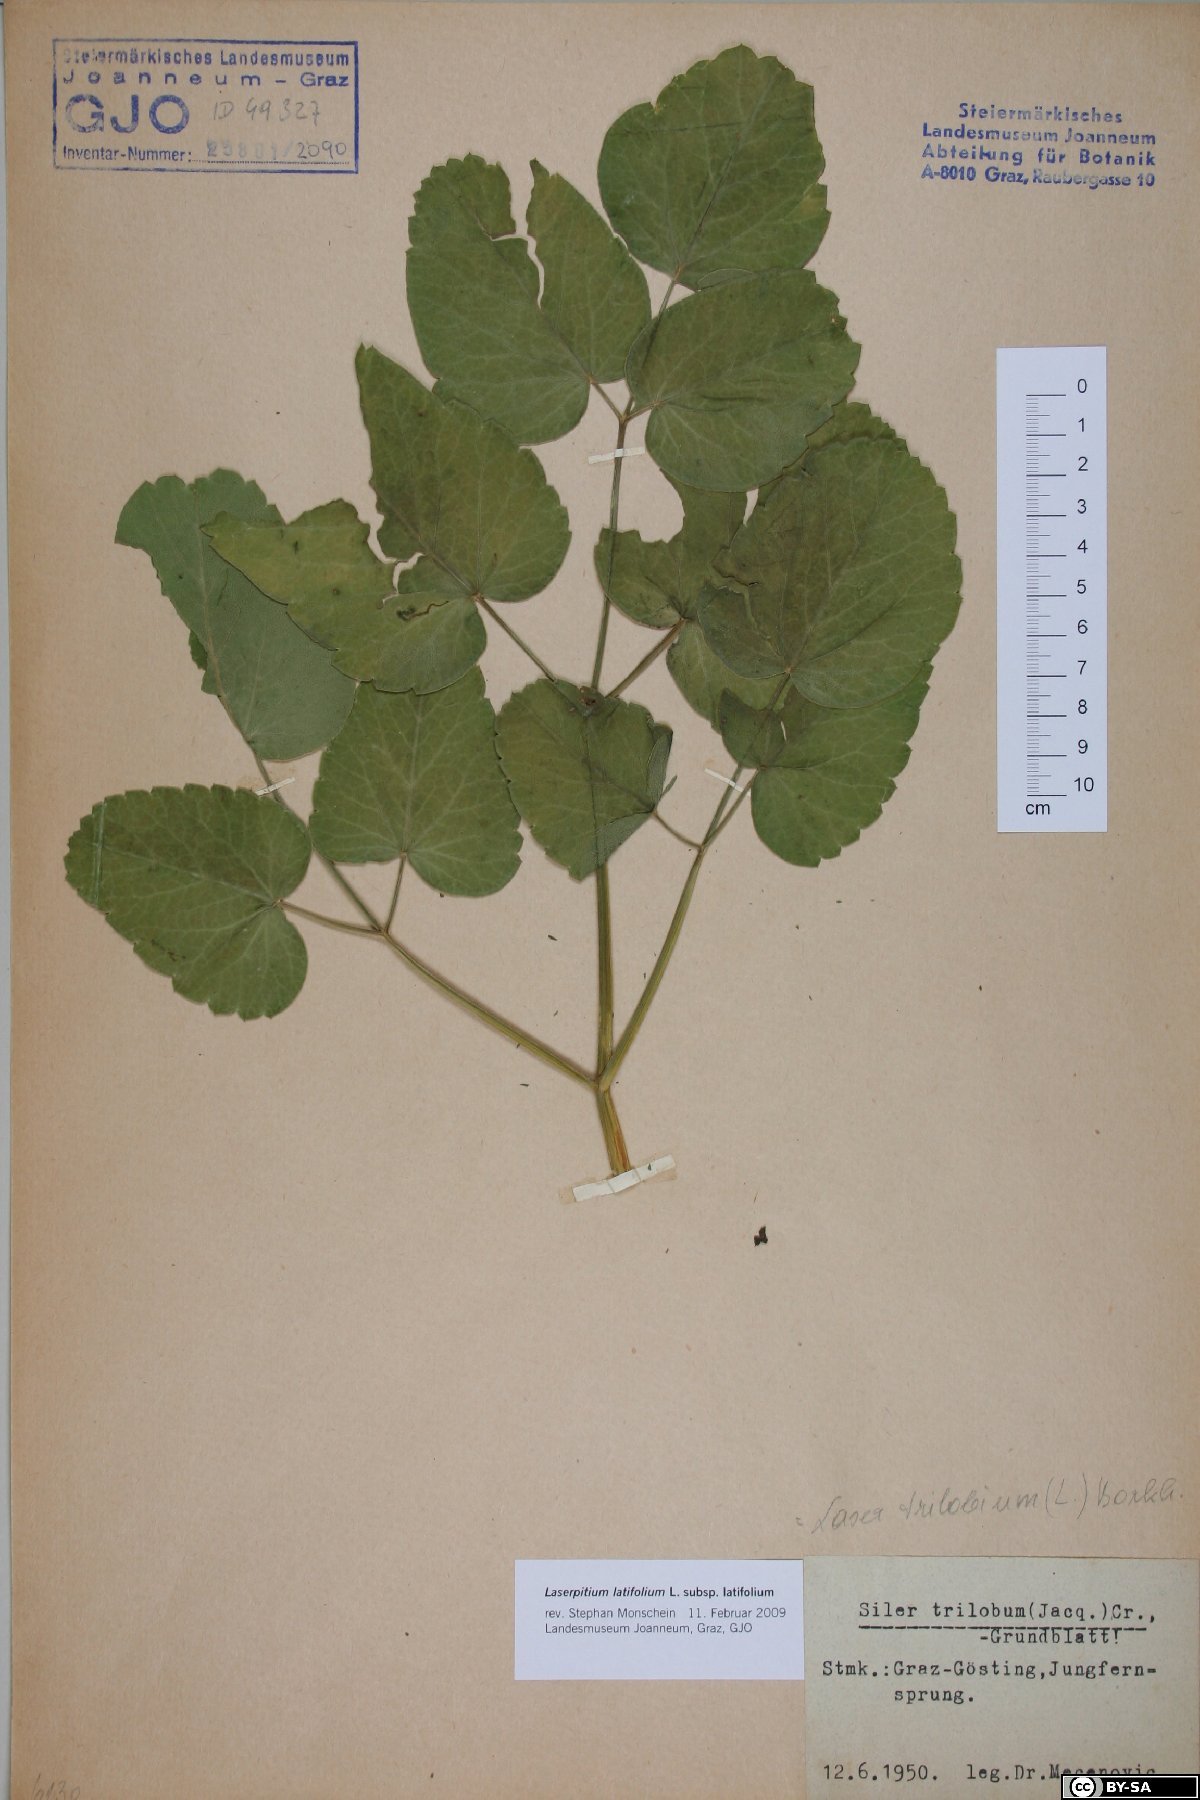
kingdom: Plantae
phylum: Tracheophyta
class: Magnoliopsida
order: Apiales
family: Apiaceae
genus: Laserpitium
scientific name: Laserpitium latifolium
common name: Broadleaf sermountain
